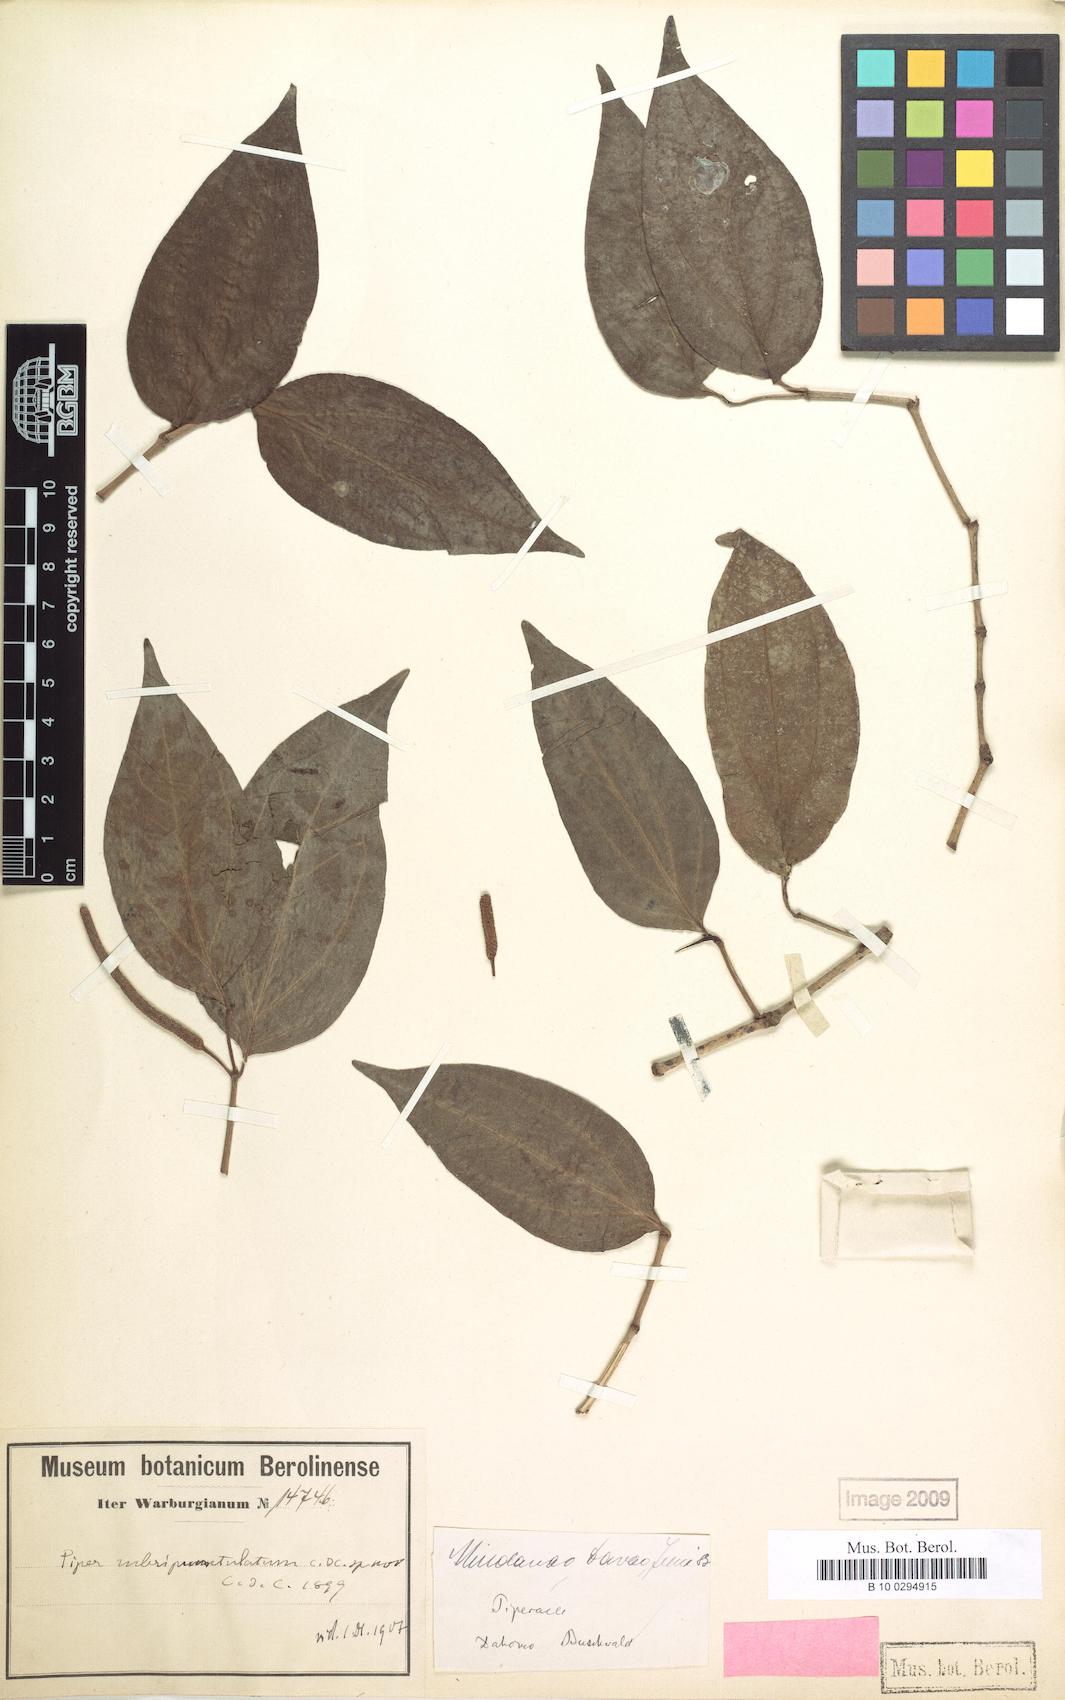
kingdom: Plantae
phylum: Tracheophyta
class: Magnoliopsida
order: Piperales
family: Piperaceae
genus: Piper
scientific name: Piper abbreviatum
